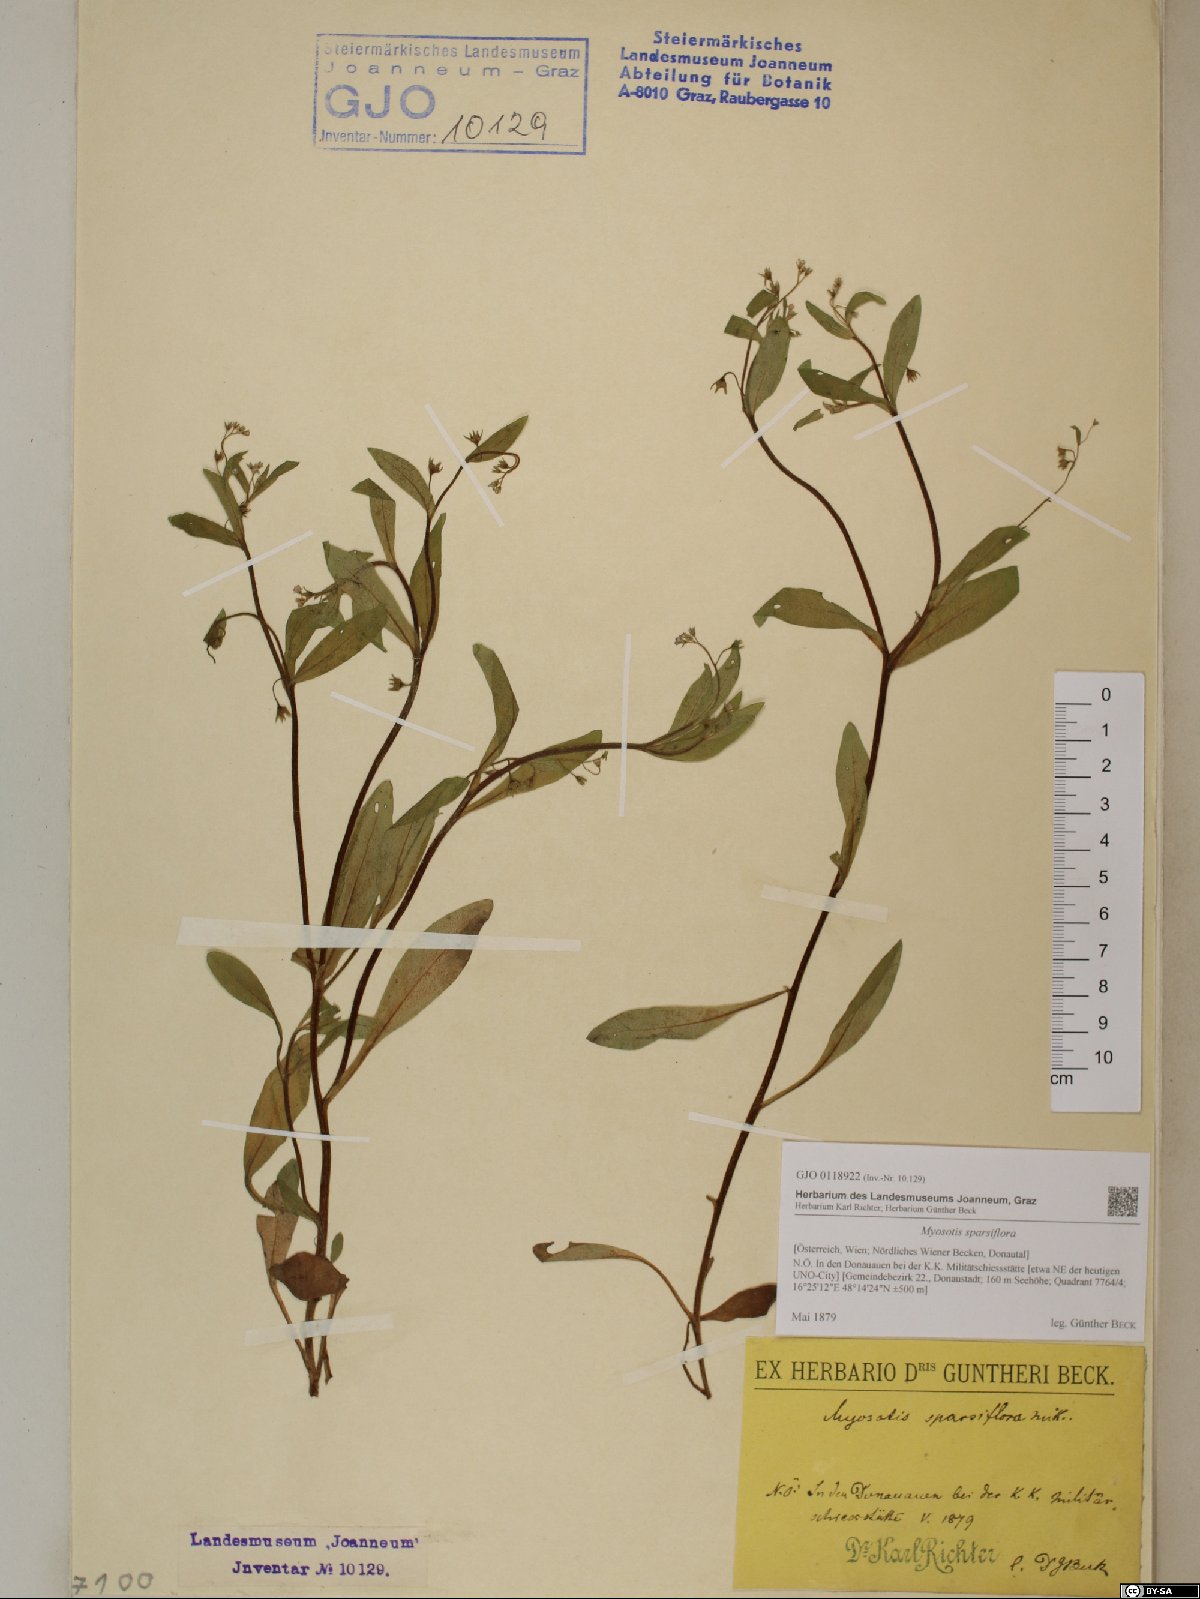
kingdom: Plantae
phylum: Tracheophyta
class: Magnoliopsida
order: Boraginales
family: Boraginaceae
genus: Myosotis
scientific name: Myosotis sparsiflora
